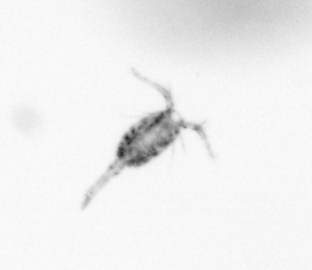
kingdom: Animalia
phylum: Arthropoda
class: Copepoda
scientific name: Copepoda
